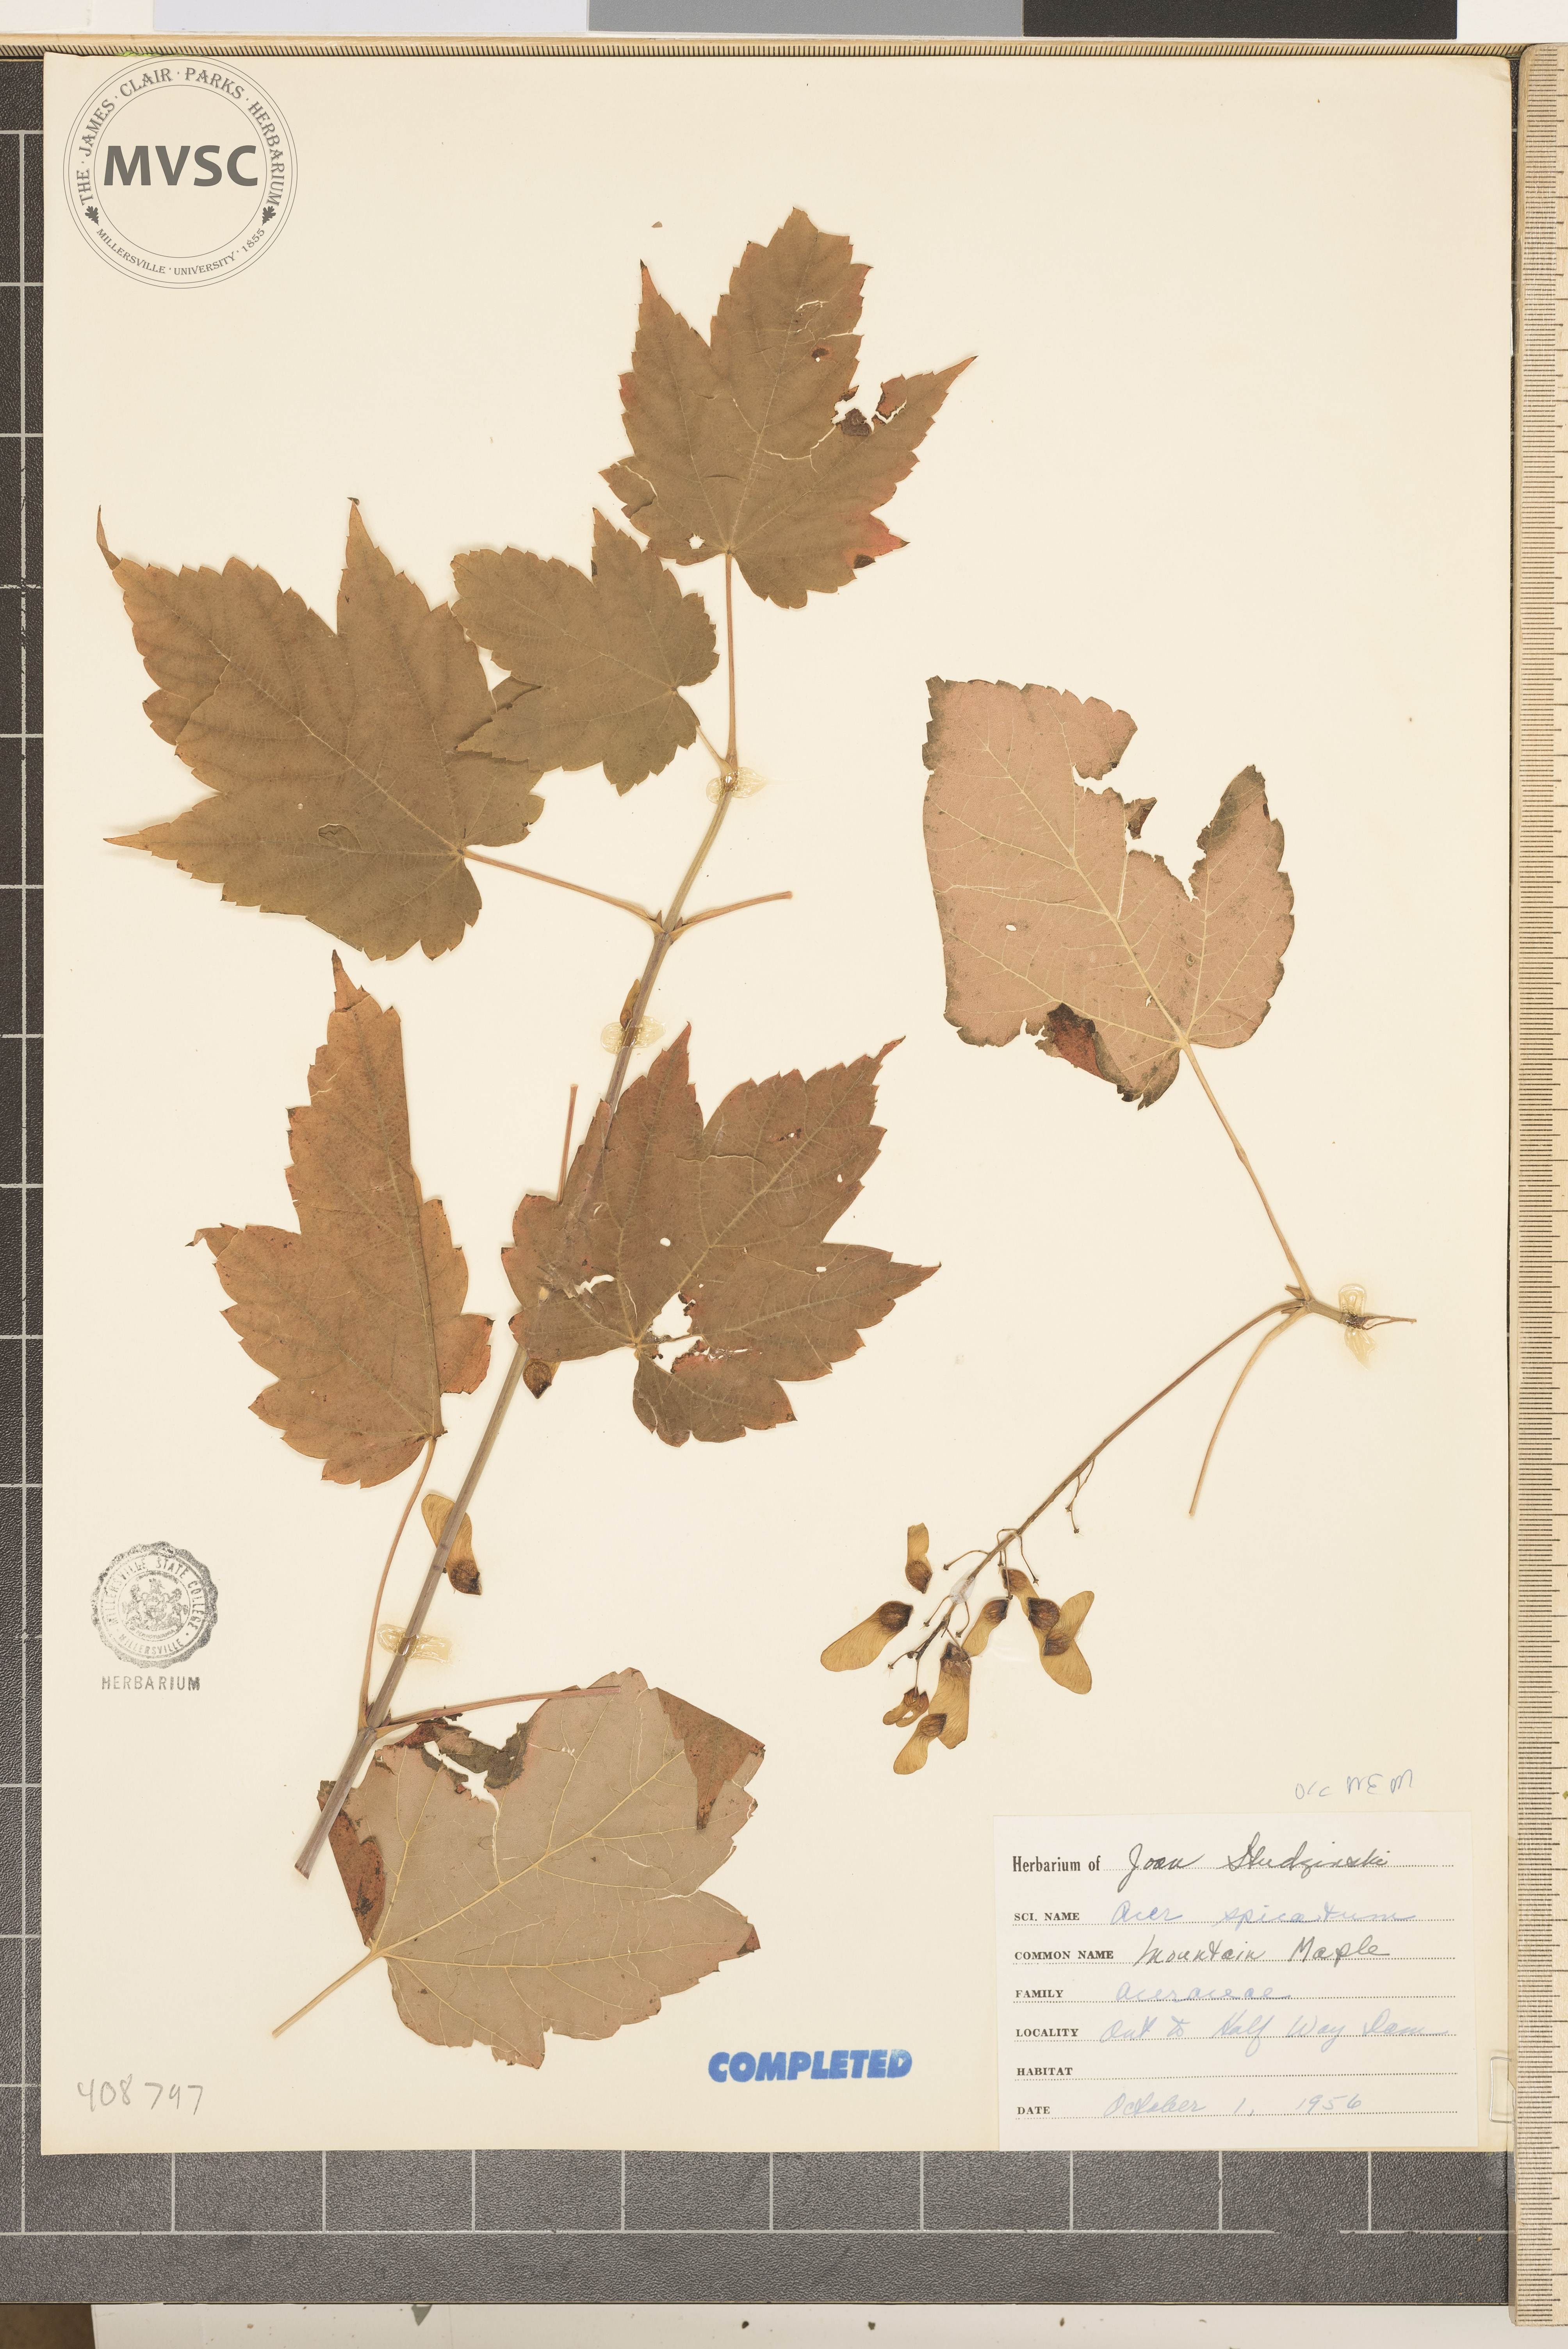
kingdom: Plantae
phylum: Tracheophyta
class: Magnoliopsida
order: Sapindales
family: Sapindaceae
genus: Acer
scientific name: Acer spicatum
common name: Mountain maple
